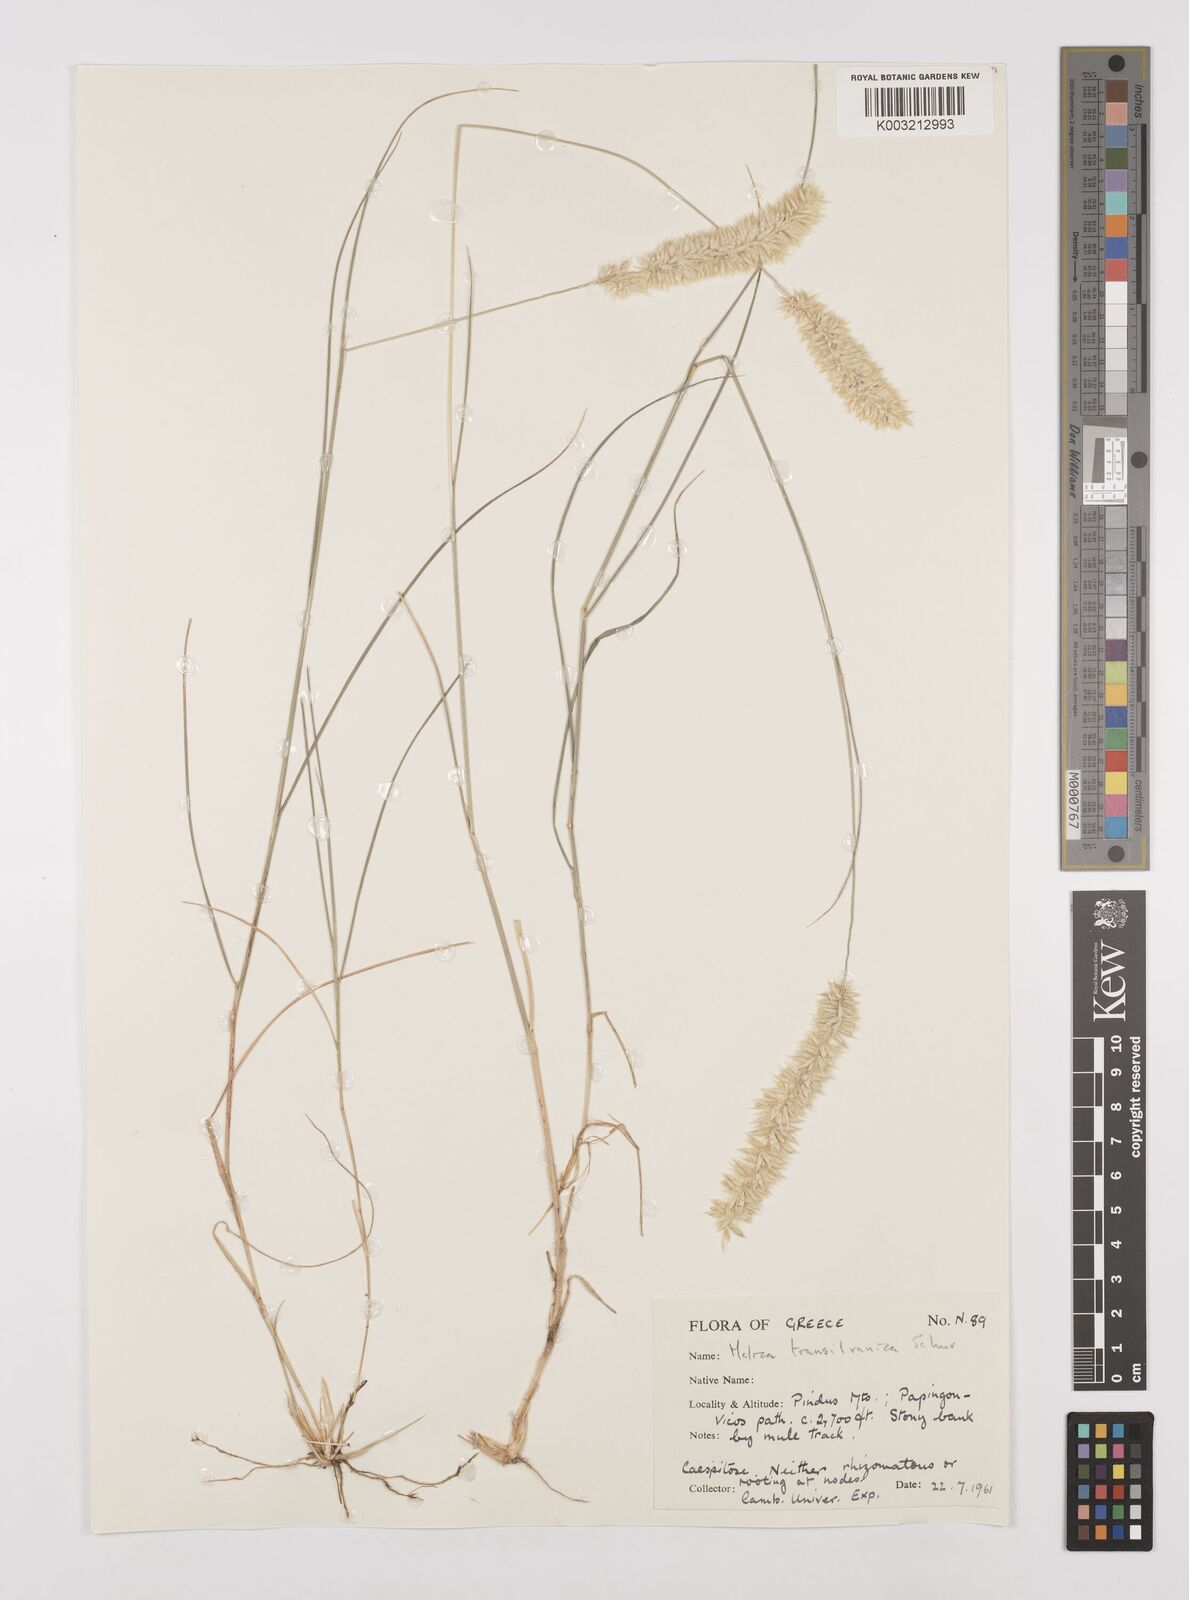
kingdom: Plantae
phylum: Tracheophyta
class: Liliopsida
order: Poales
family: Poaceae
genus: Melica
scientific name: Melica transsilvanica
